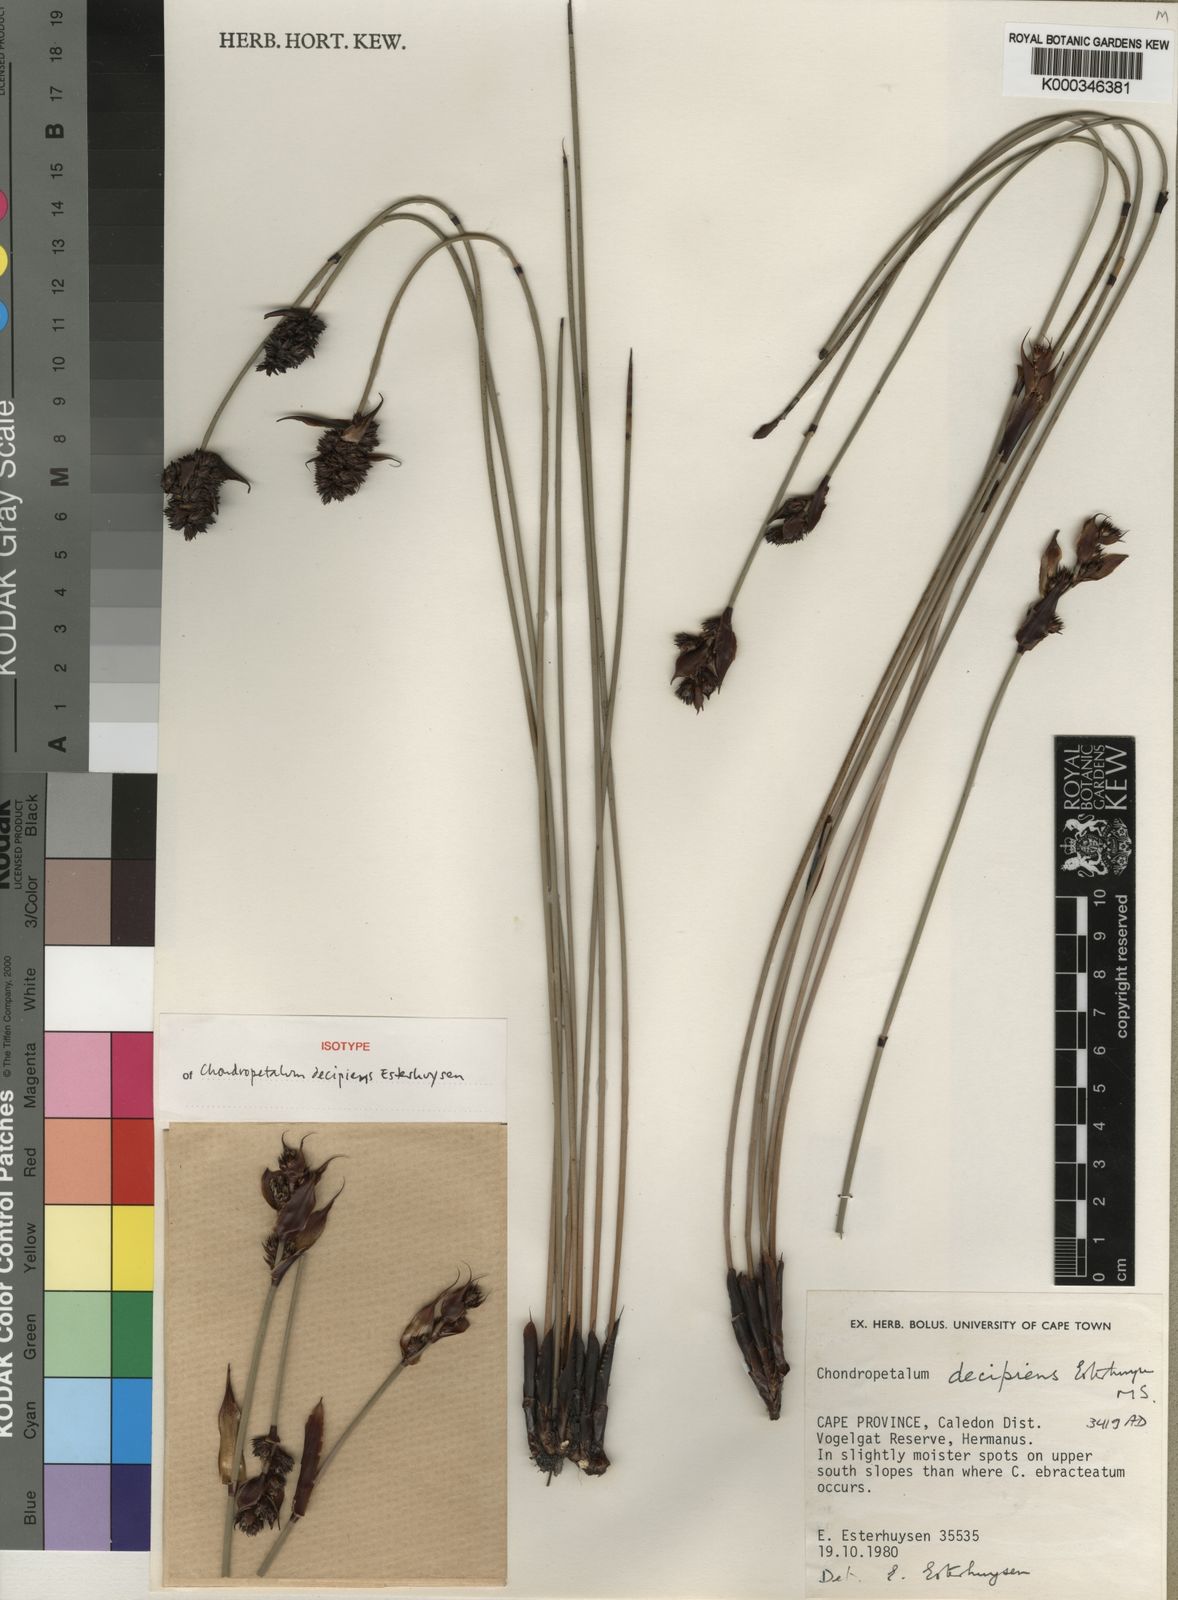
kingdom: Plantae
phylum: Tracheophyta
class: Liliopsida
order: Poales
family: Restionaceae
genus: Elegia
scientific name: Elegia decipiens
